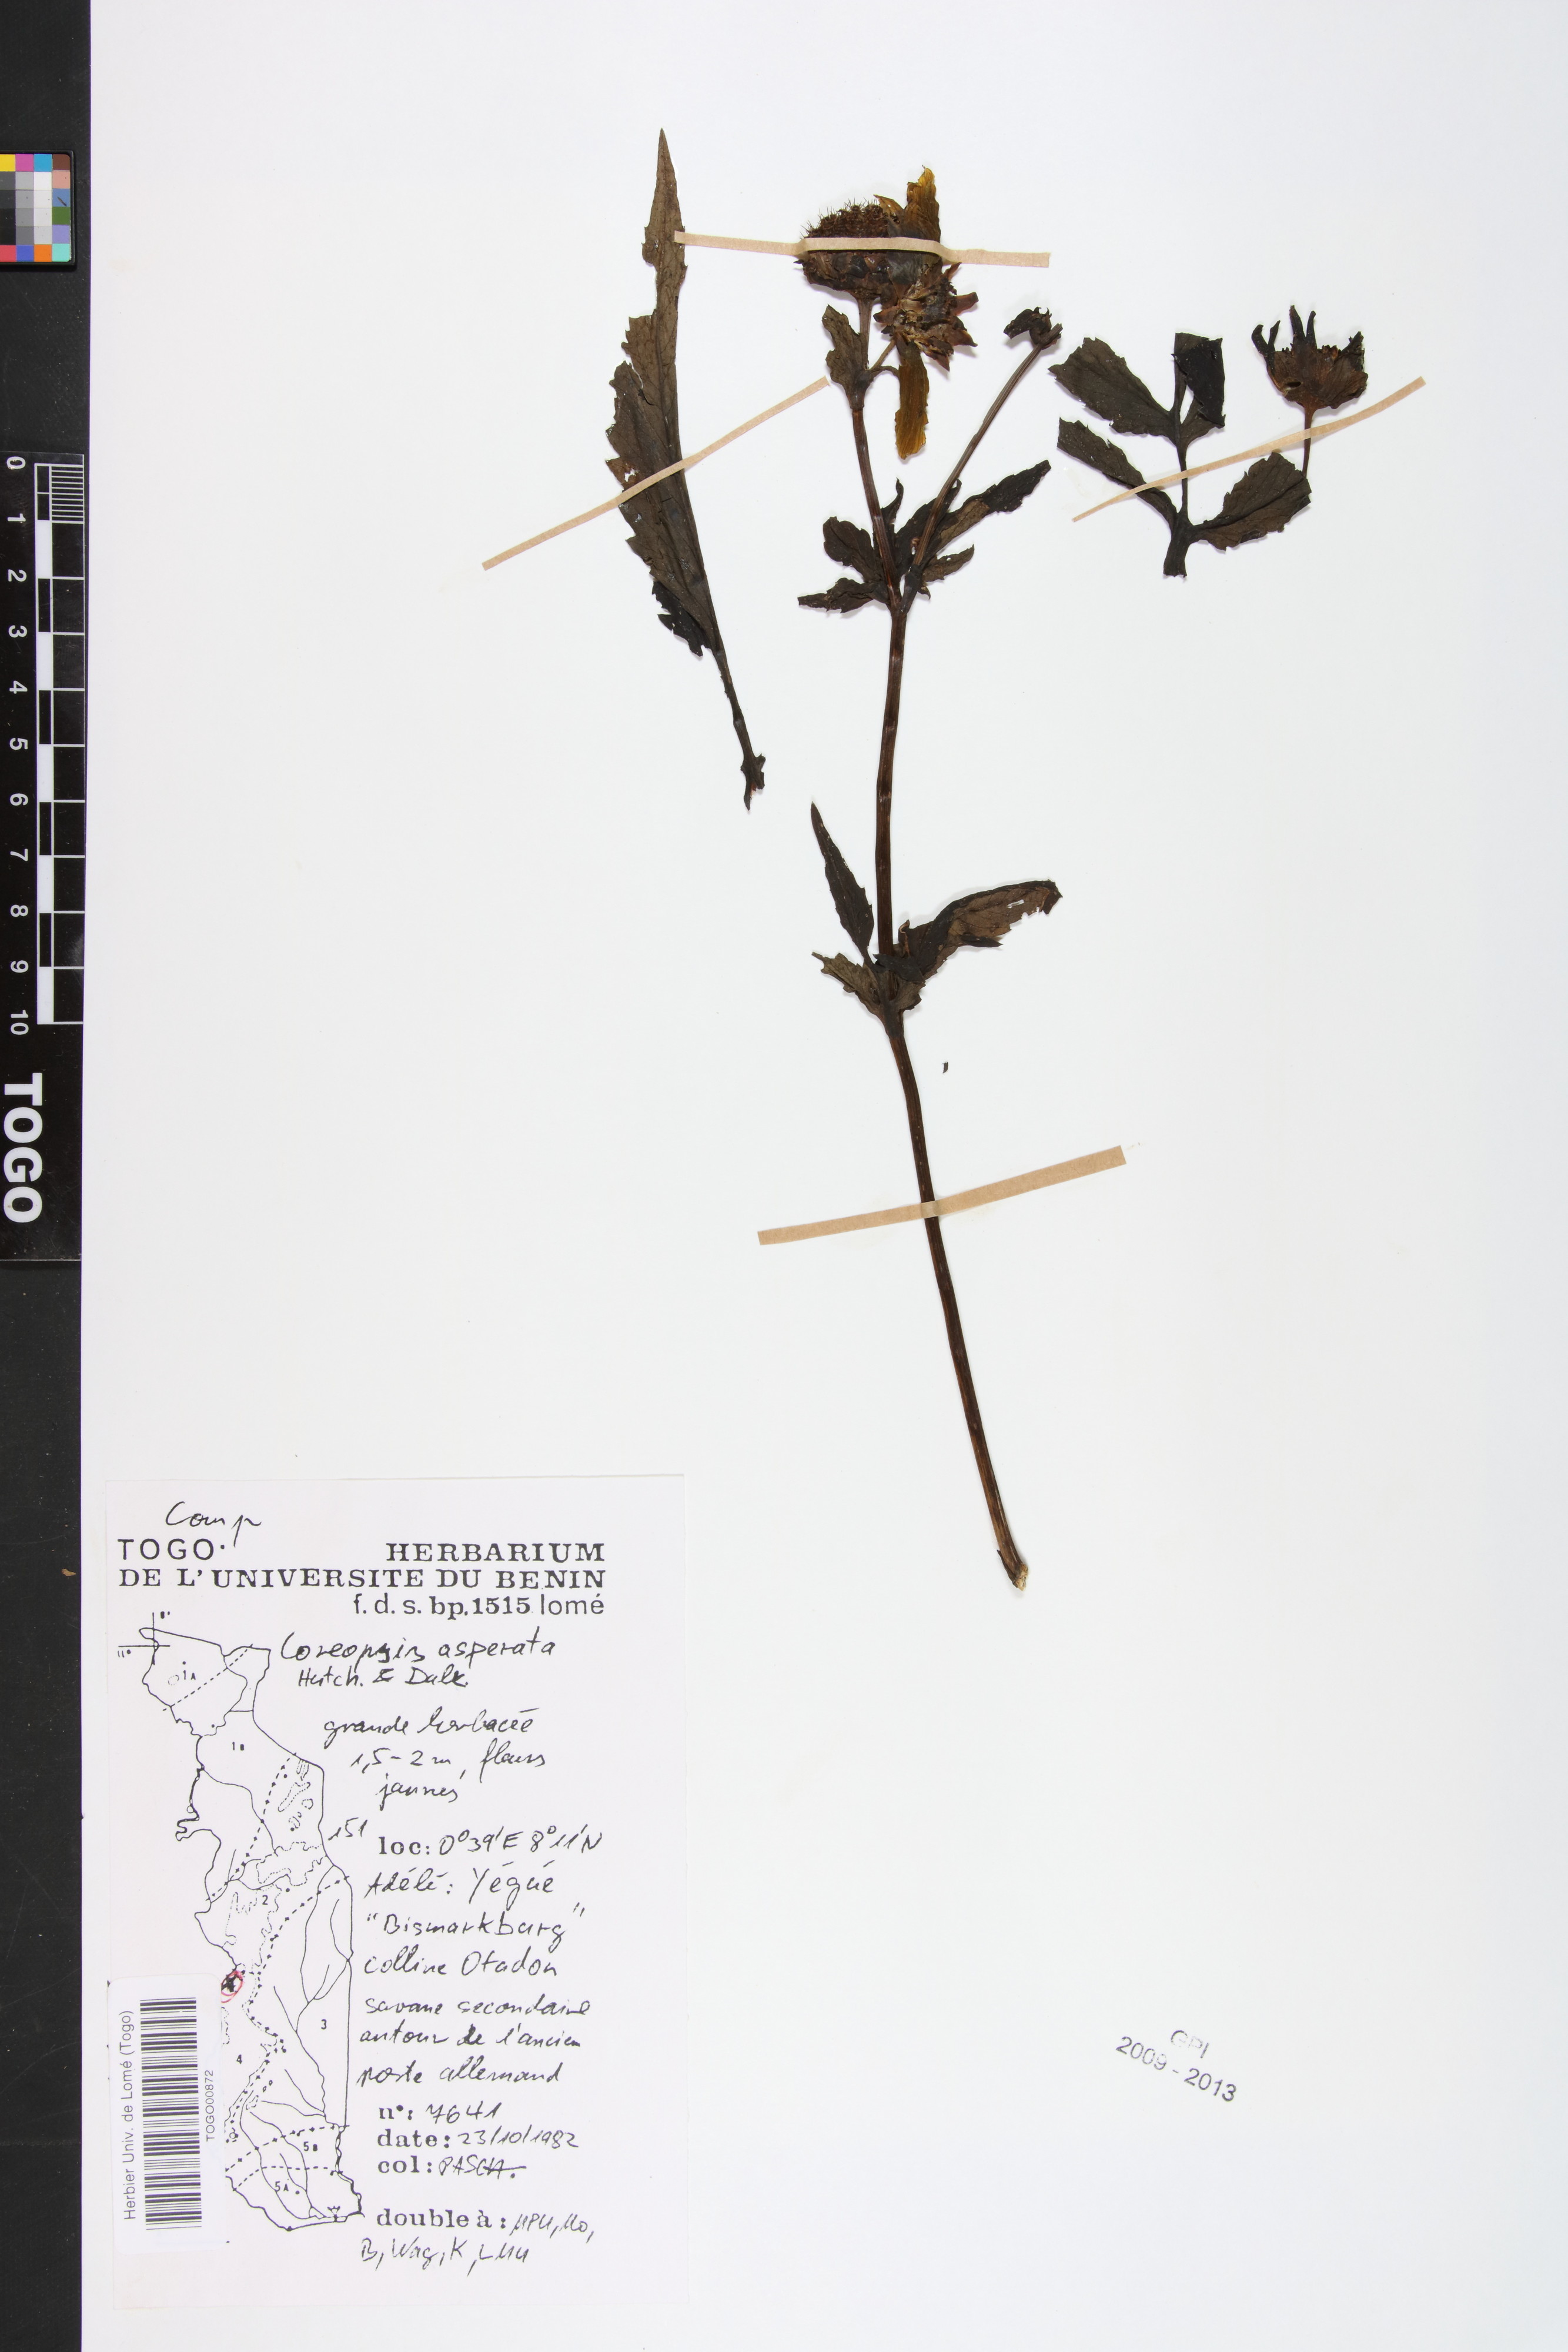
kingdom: Plantae
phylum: Tracheophyta
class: Magnoliopsida
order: Asterales
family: Asteraceae
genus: Bidens
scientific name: Bidens asperata
